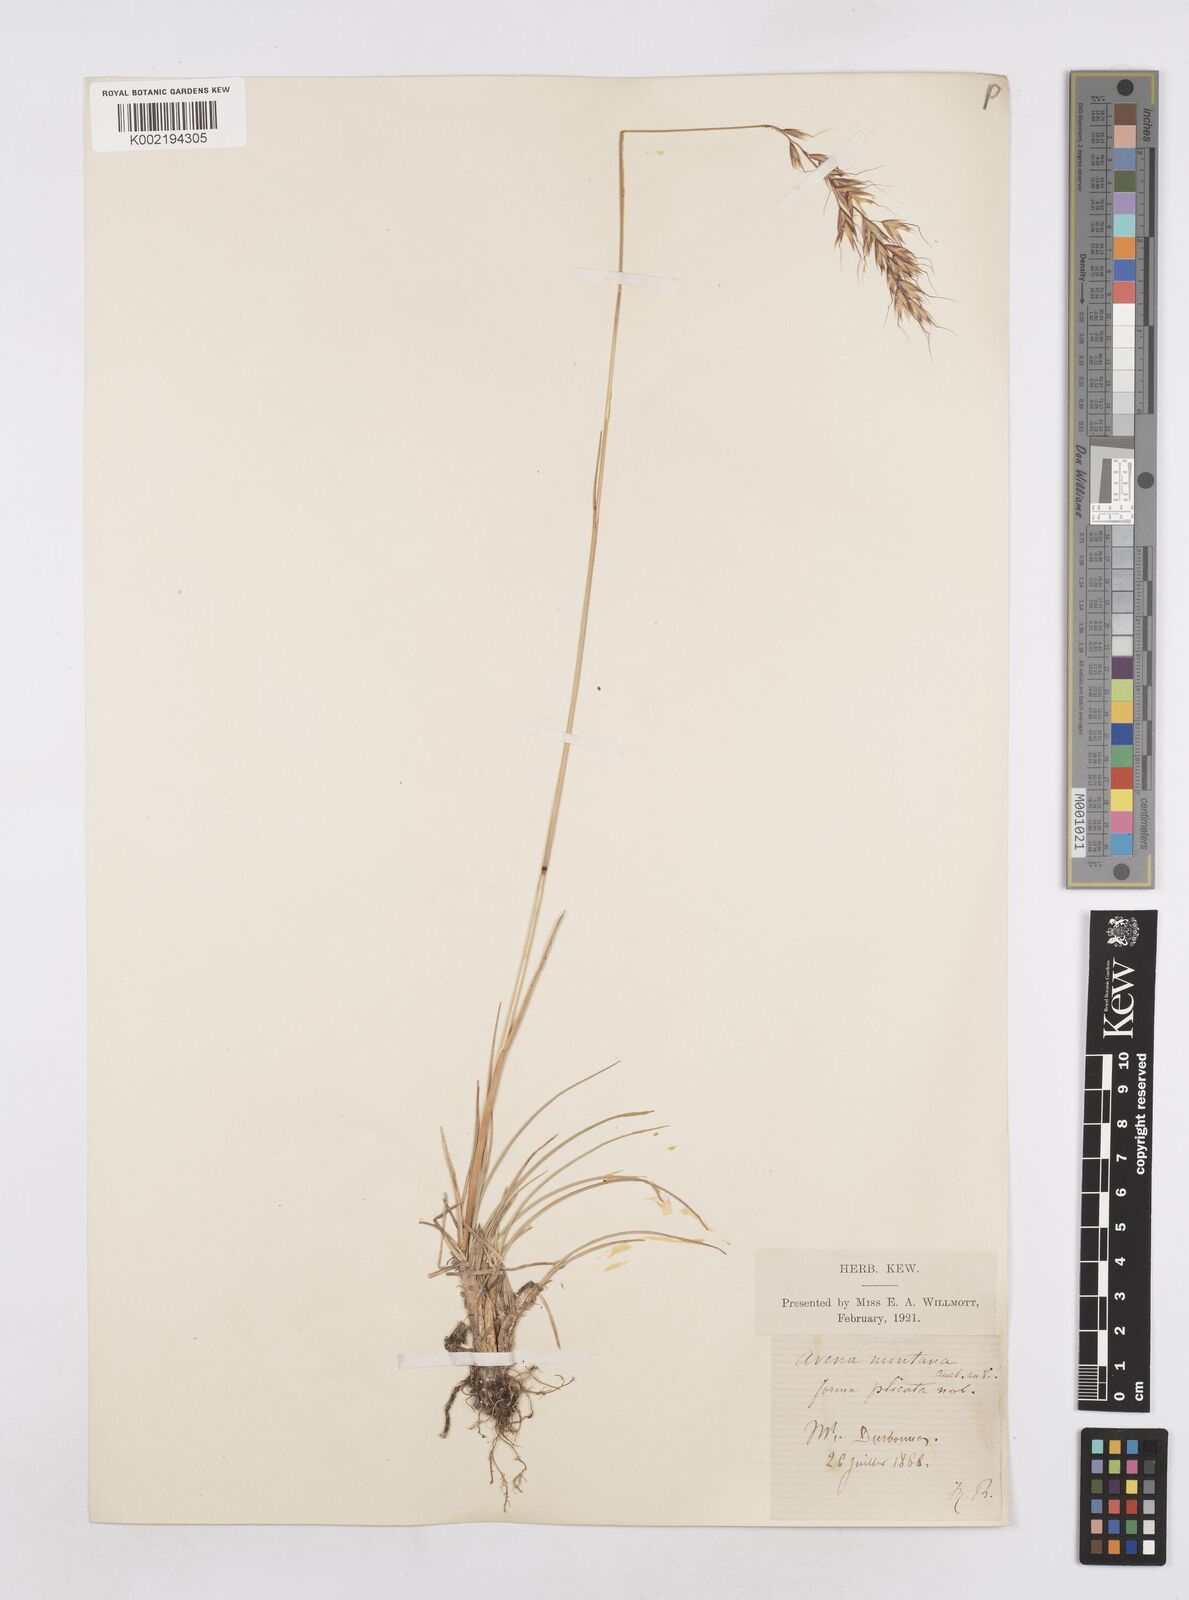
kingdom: Plantae
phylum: Tracheophyta
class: Liliopsida
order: Poales
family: Poaceae
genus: Helictotrichon
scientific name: Helictotrichon sedenense
